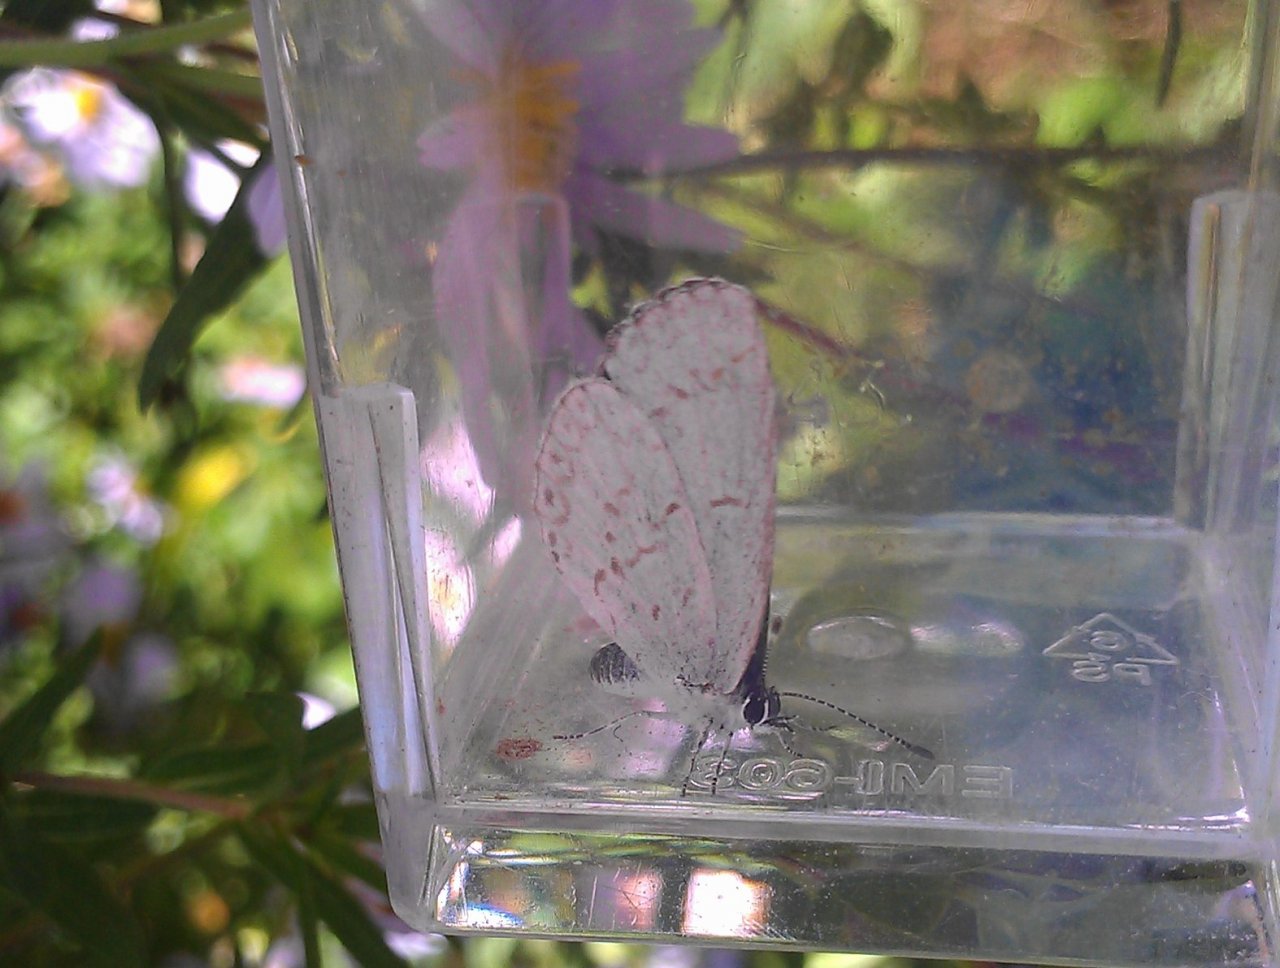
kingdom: Animalia
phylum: Arthropoda
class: Insecta
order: Lepidoptera
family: Lycaenidae
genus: Cyaniris
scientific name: Cyaniris neglecta
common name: Summer Azure
